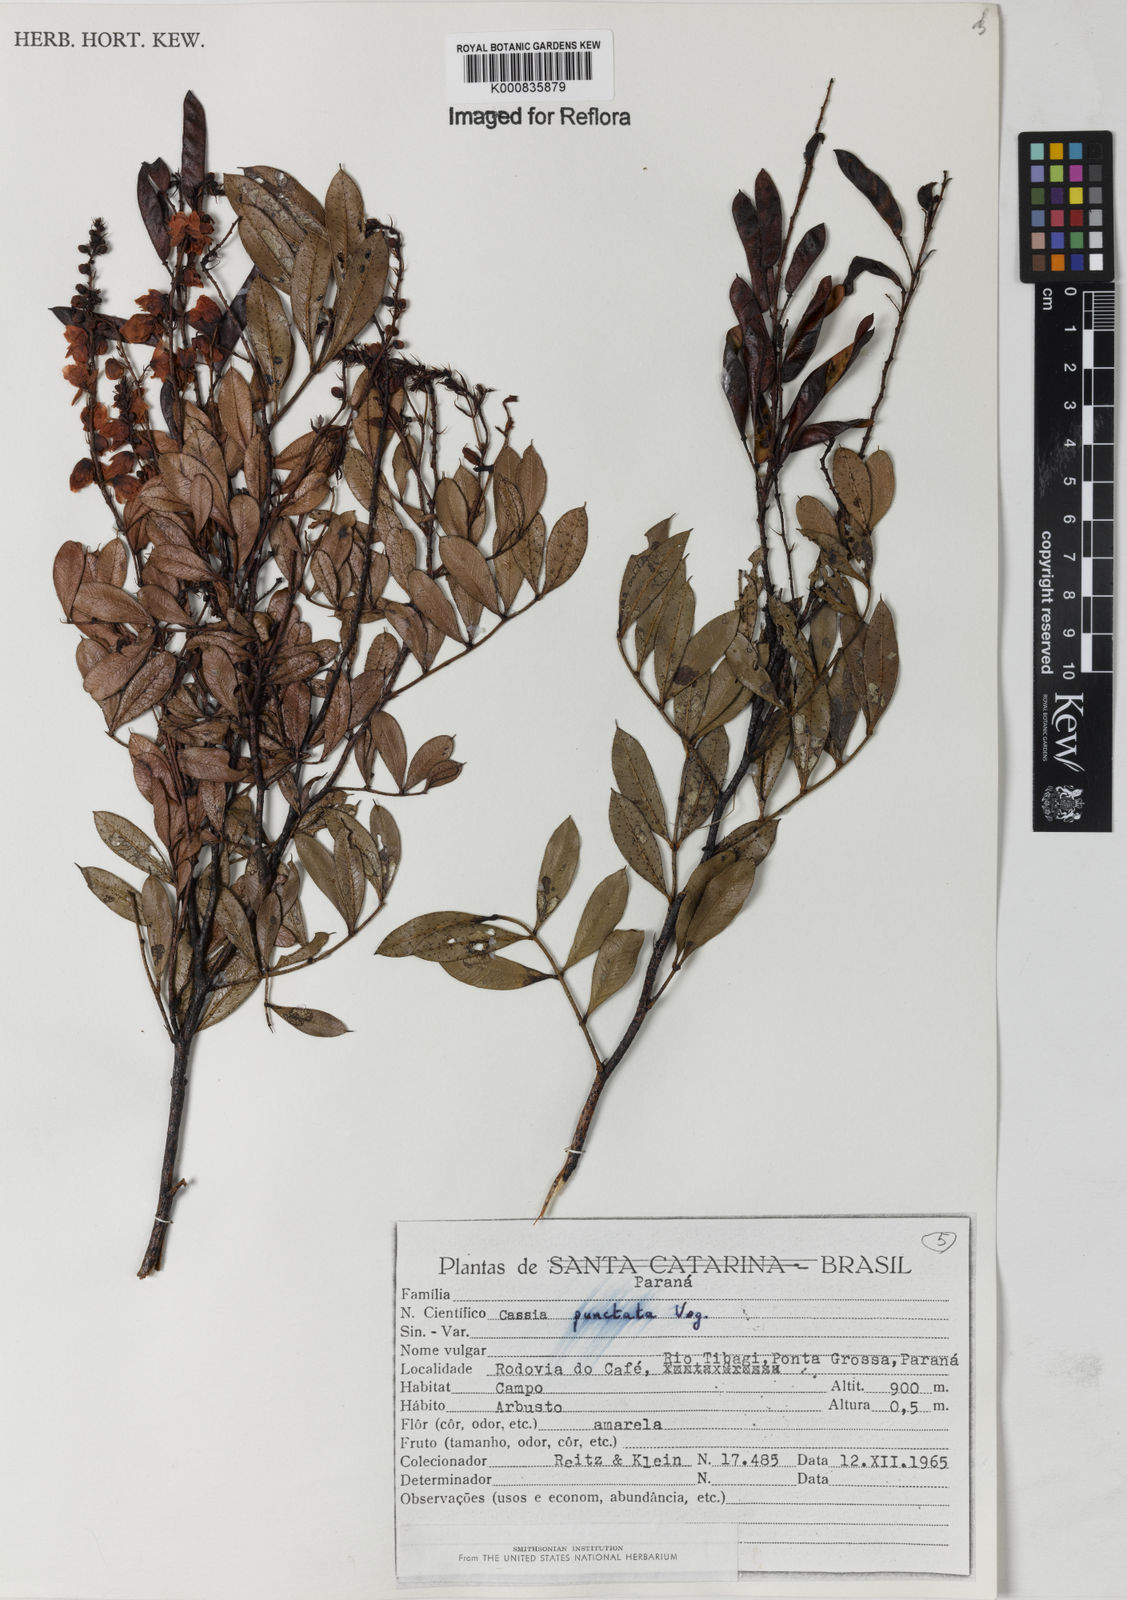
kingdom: Plantae
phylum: Tracheophyta
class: Magnoliopsida
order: Fabales
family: Fabaceae
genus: Chamaecrista
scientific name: Chamaecrista punctata
